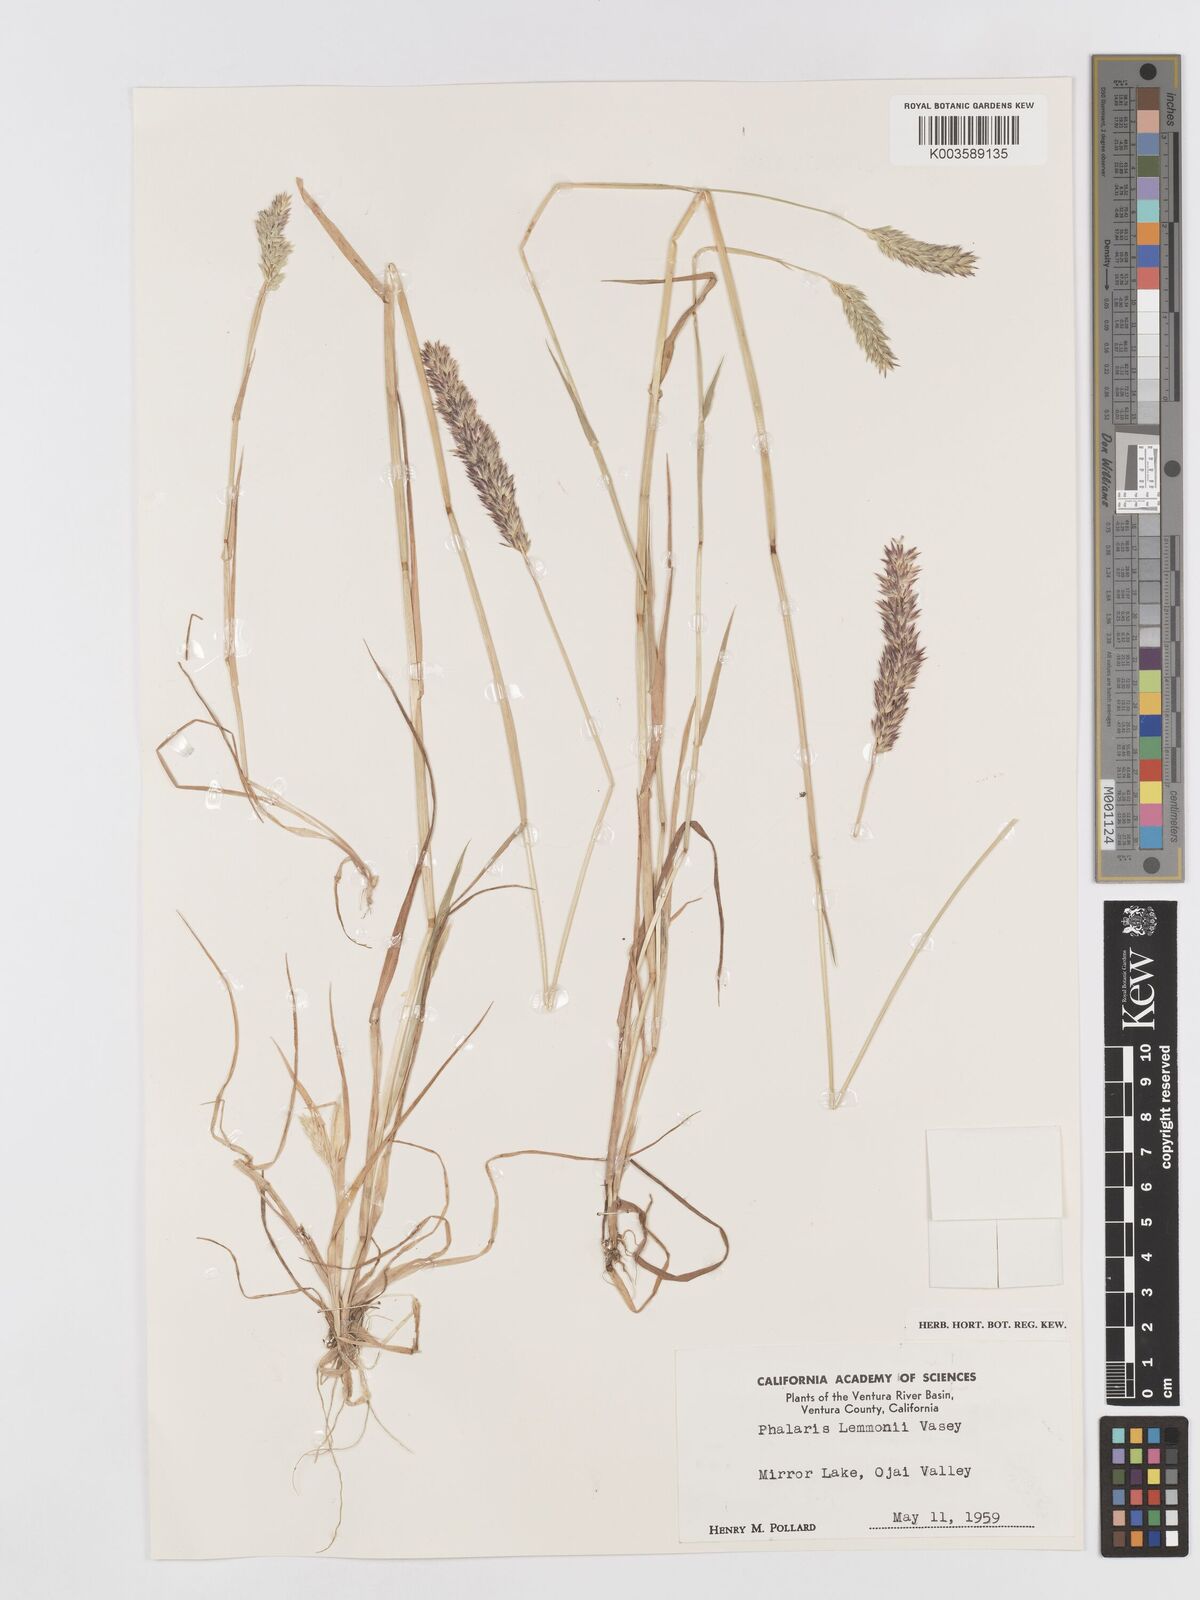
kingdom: Plantae
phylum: Tracheophyta
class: Liliopsida
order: Poales
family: Poaceae
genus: Phalaris
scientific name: Phalaris lemmonii
